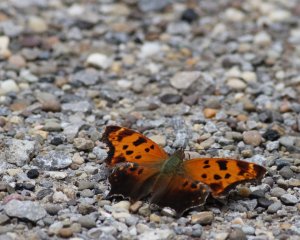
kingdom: Animalia
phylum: Arthropoda
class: Insecta
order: Lepidoptera
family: Nymphalidae
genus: Polygonia
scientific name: Polygonia interrogationis
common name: Question Mark
